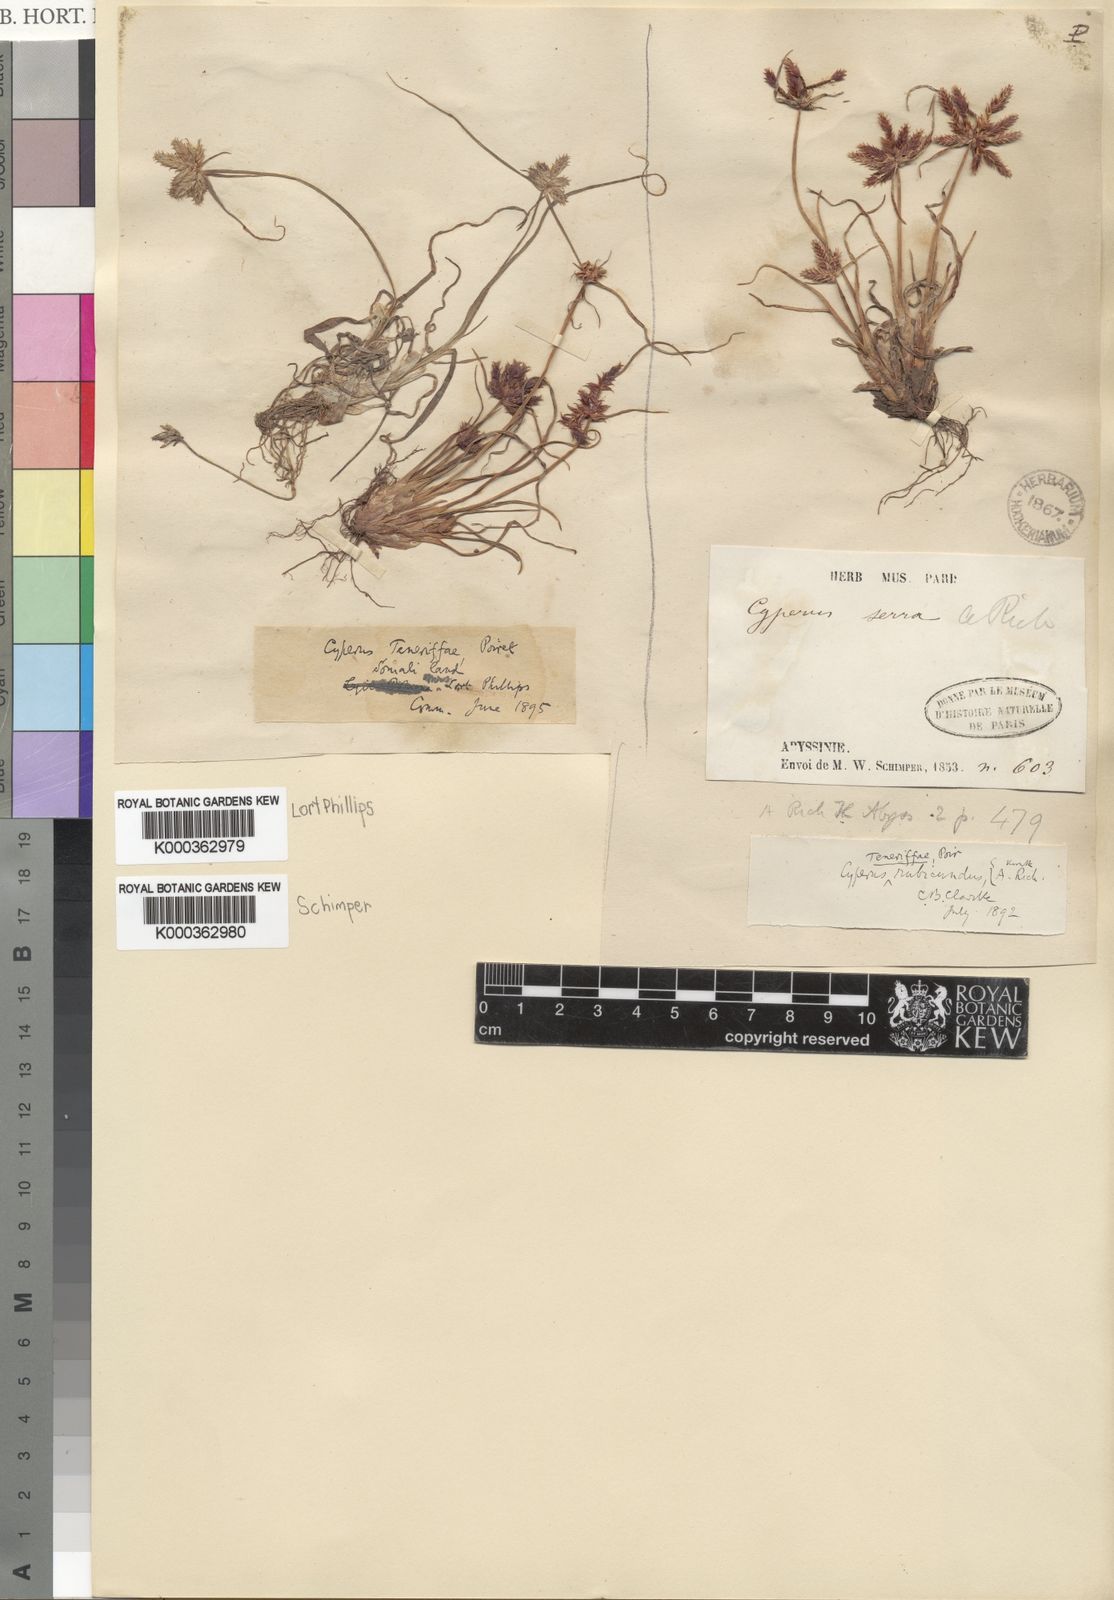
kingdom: Plantae
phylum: Tracheophyta
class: Liliopsida
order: Poales
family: Cyperaceae
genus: Cyperus
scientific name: Cyperus rubicundus
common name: Coco-grass
